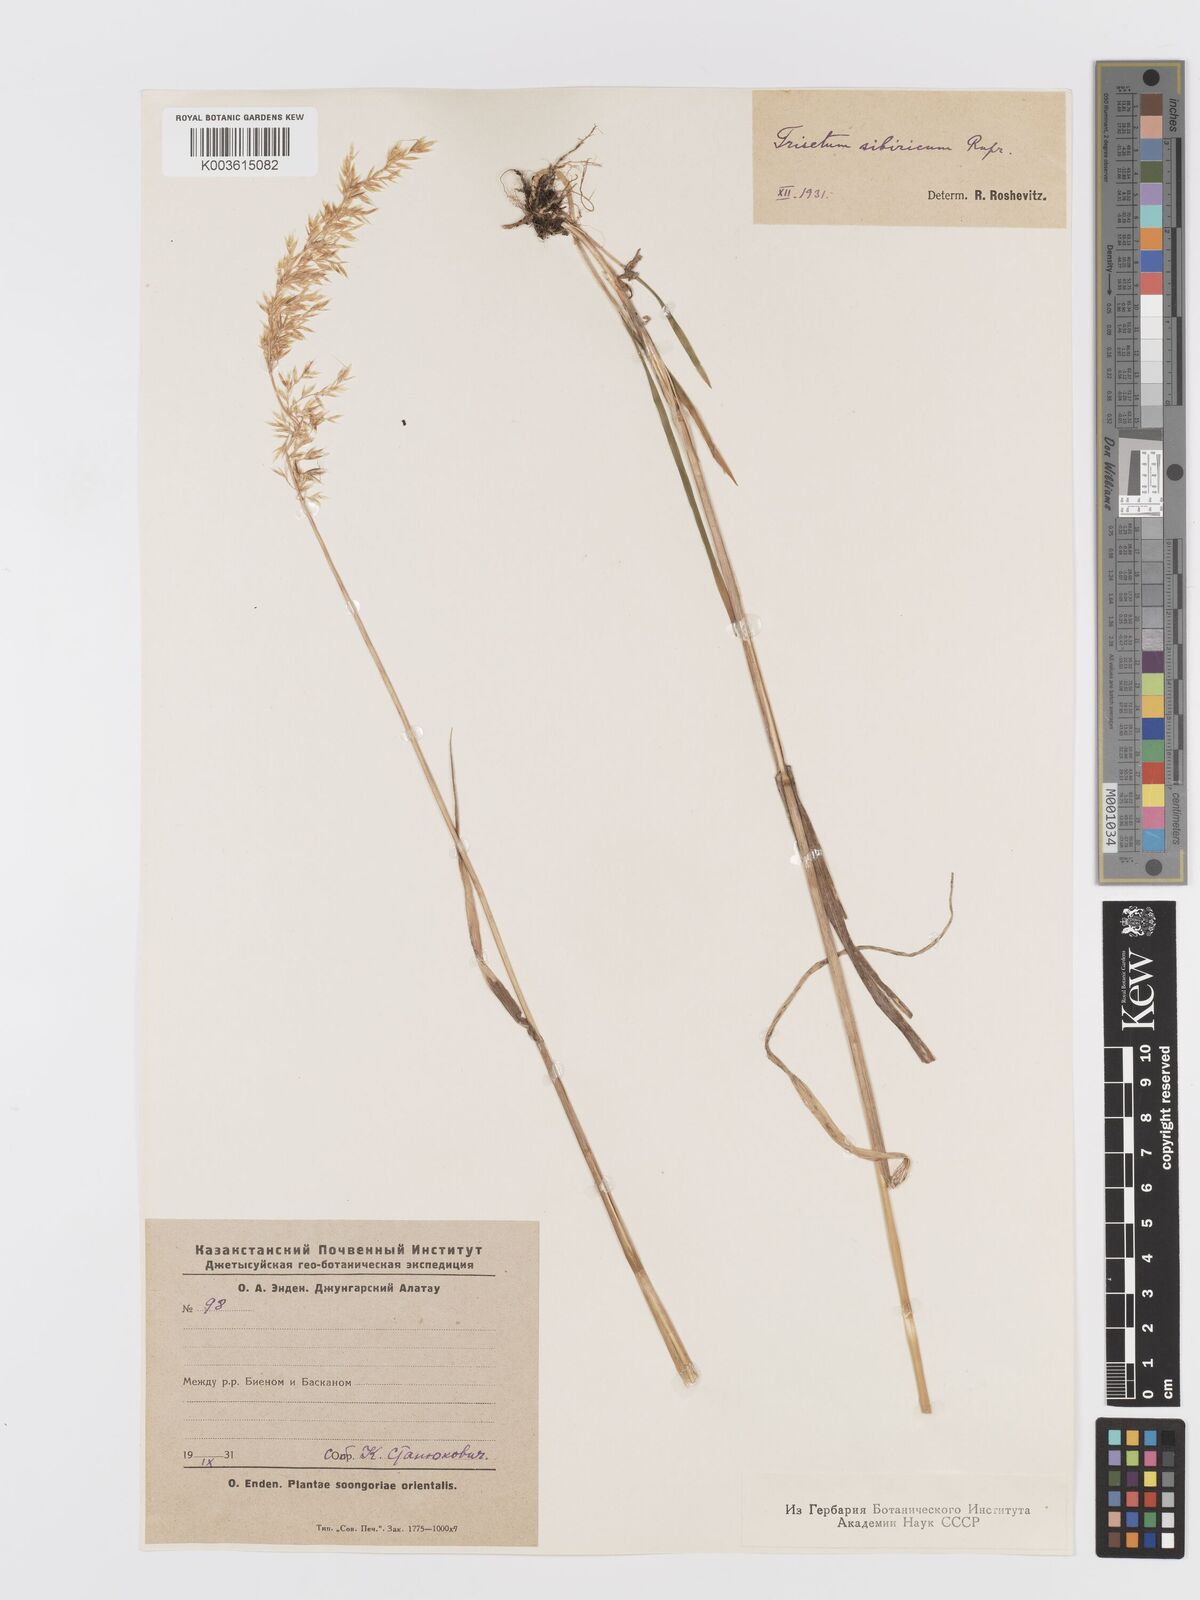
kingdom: Plantae
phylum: Tracheophyta
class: Liliopsida
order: Poales
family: Poaceae
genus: Sibirotrisetum
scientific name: Sibirotrisetum sibiricum
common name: Siberian false oat
